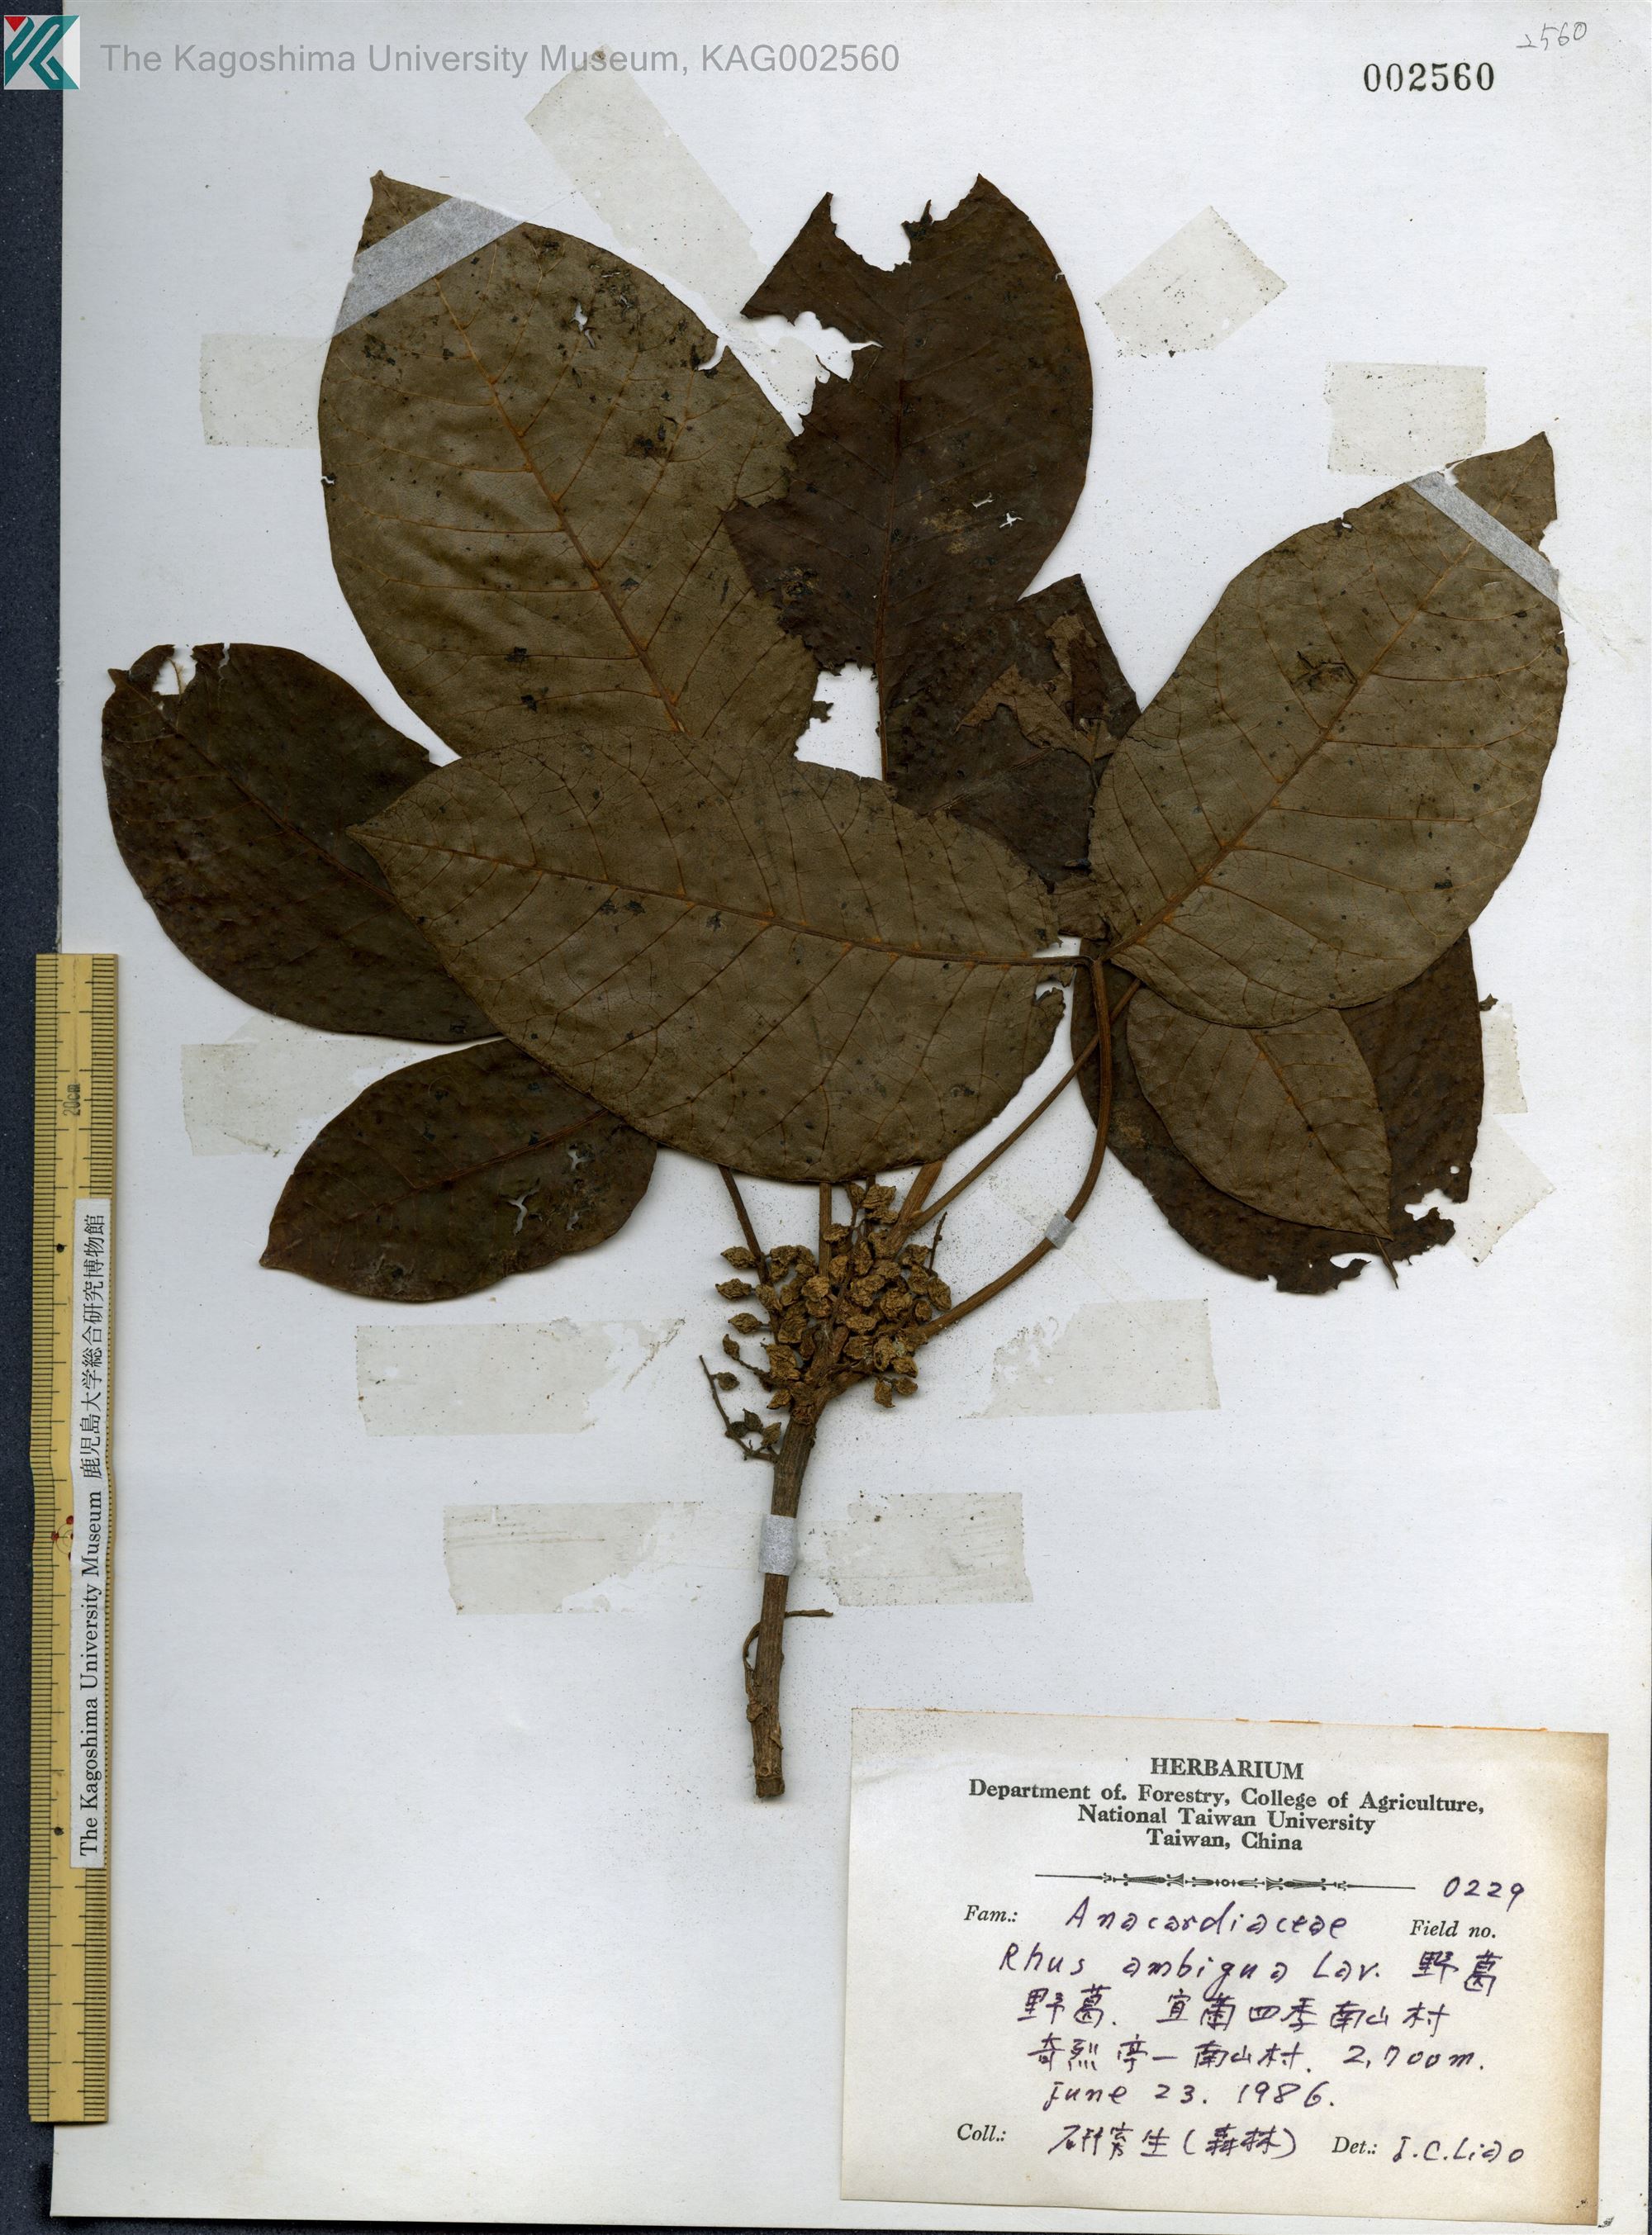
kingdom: Plantae
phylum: Tracheophyta
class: Magnoliopsida
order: Sapindales
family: Anacardiaceae
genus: Toxicodendron
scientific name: Toxicodendron orientale
